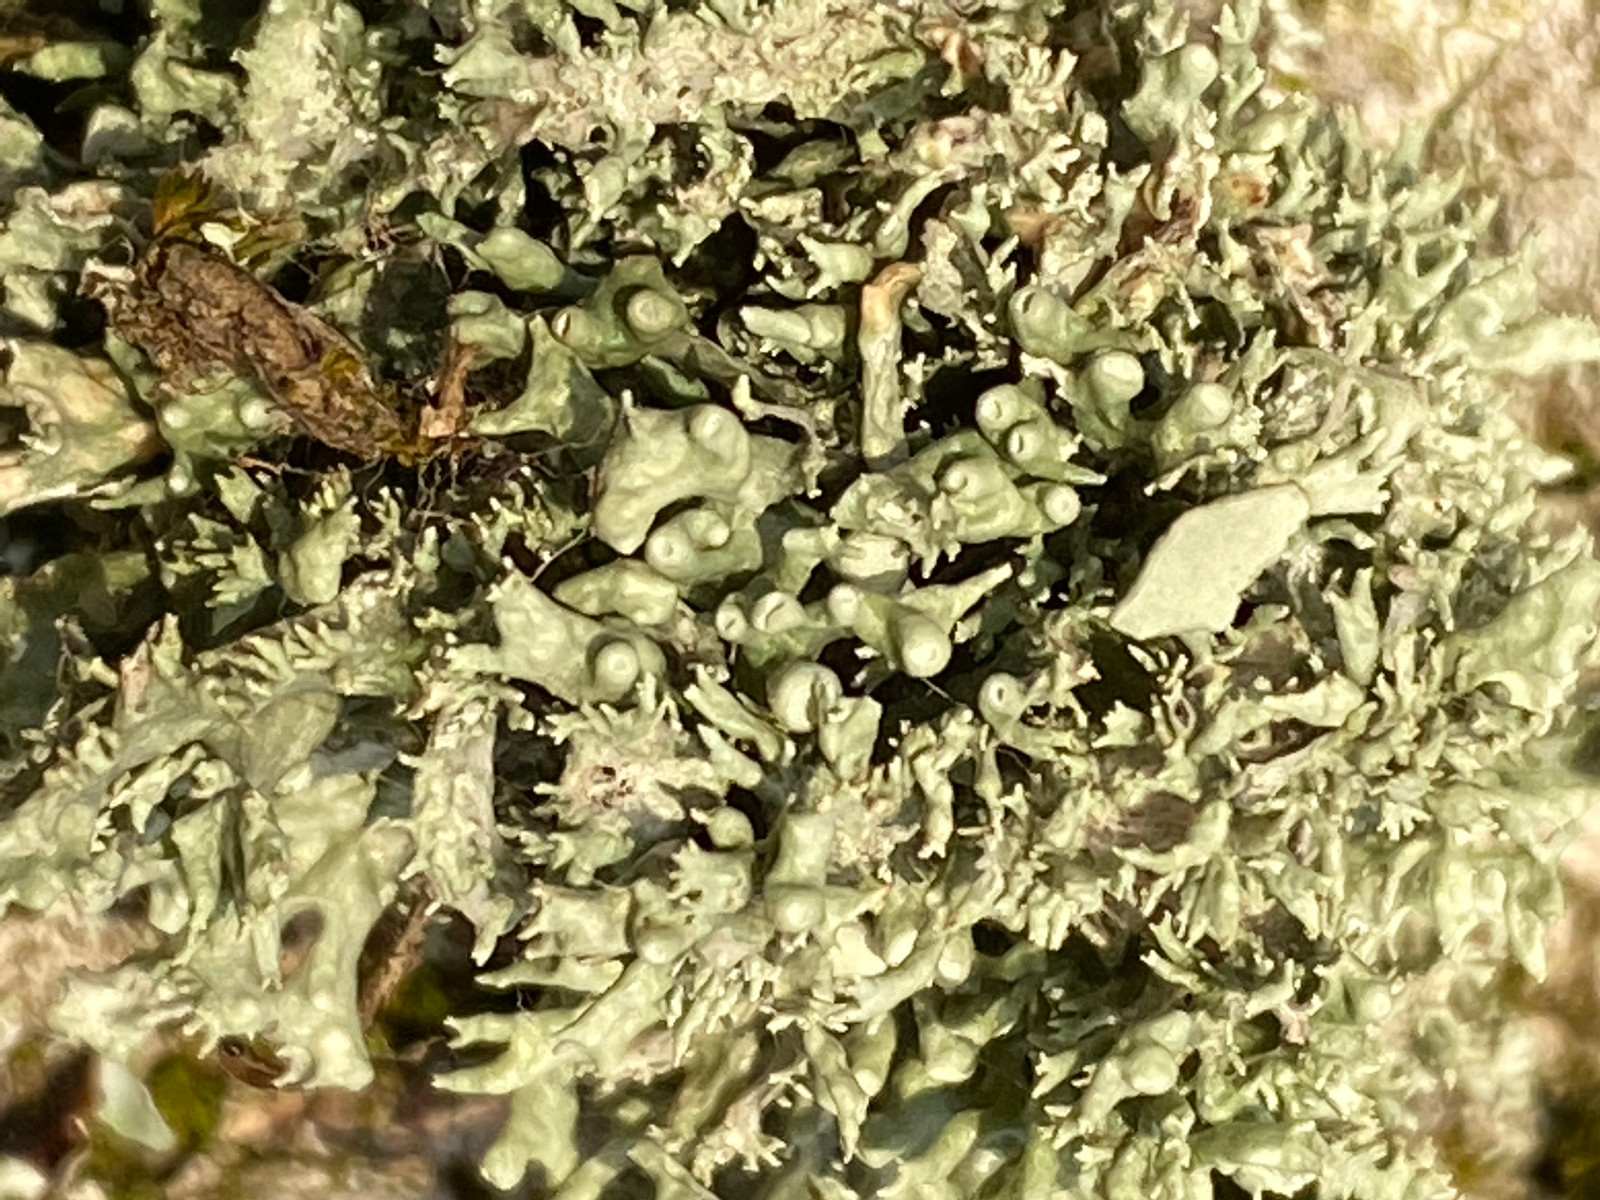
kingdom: Fungi
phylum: Ascomycota
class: Lecanoromycetes
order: Lecanorales
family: Ramalinaceae
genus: Ramalina
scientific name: Ramalina fastigiata
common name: tue-grenlav
